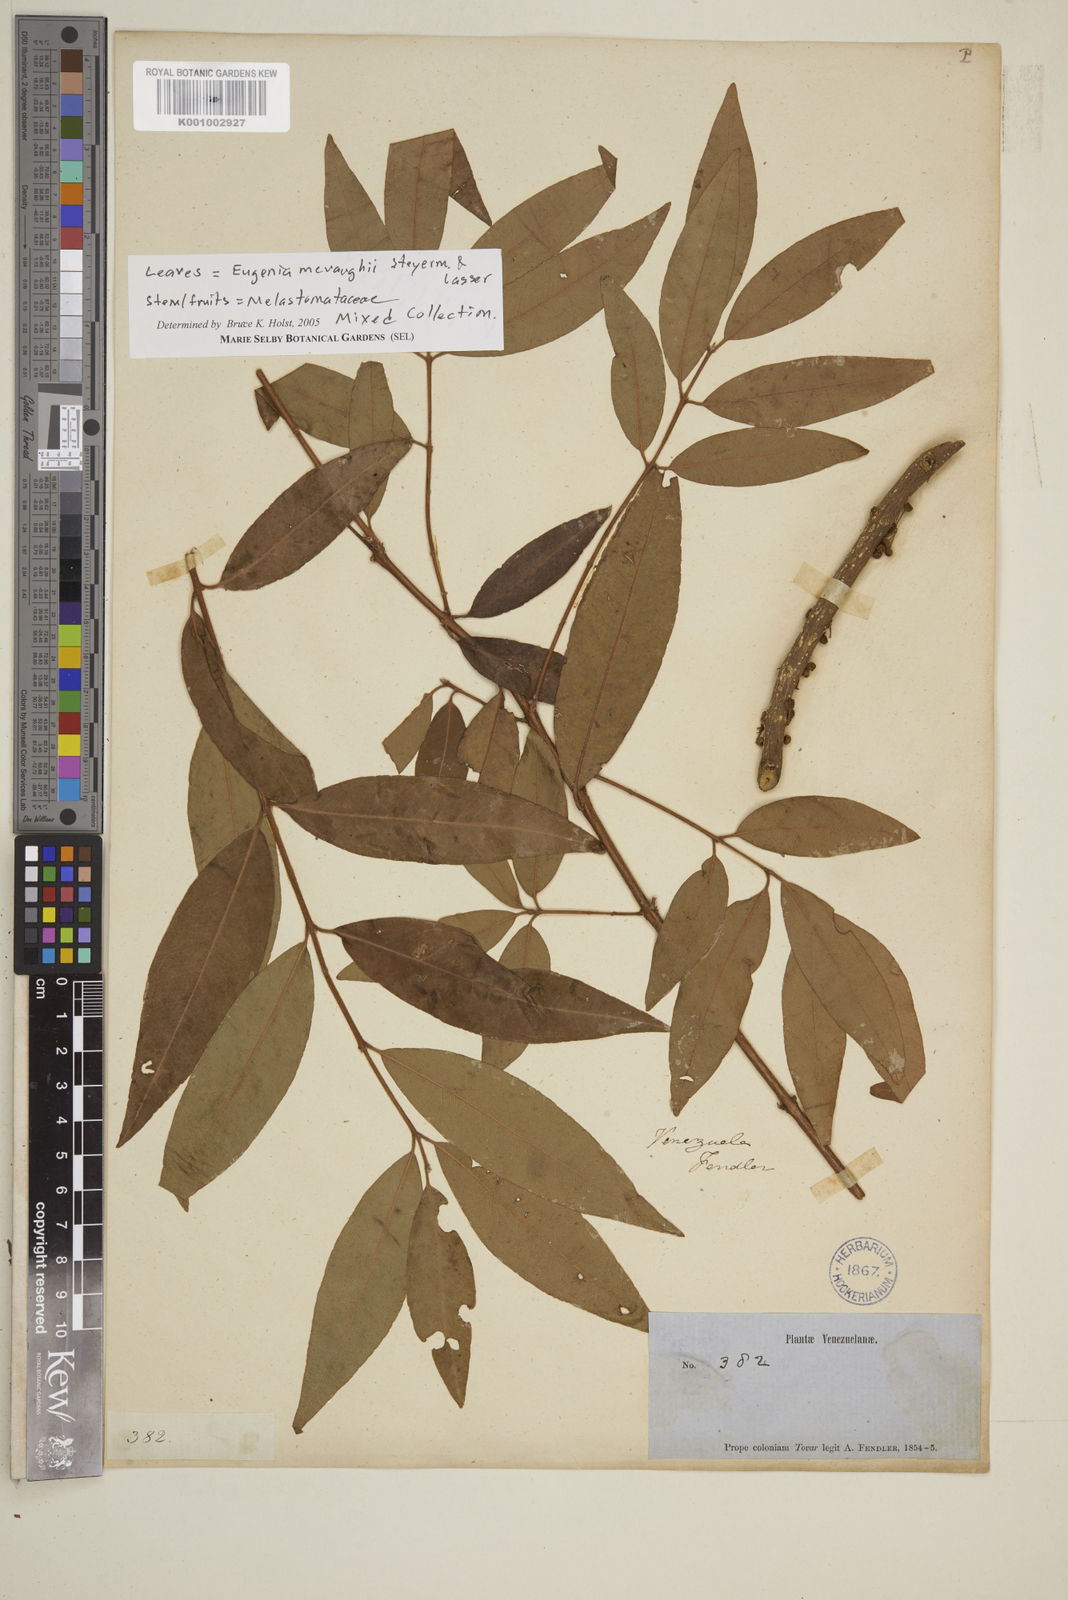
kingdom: Plantae
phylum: Tracheophyta
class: Magnoliopsida
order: Myrtales
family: Myrtaceae
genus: Eugenia
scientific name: Eugenia mcvaughii
